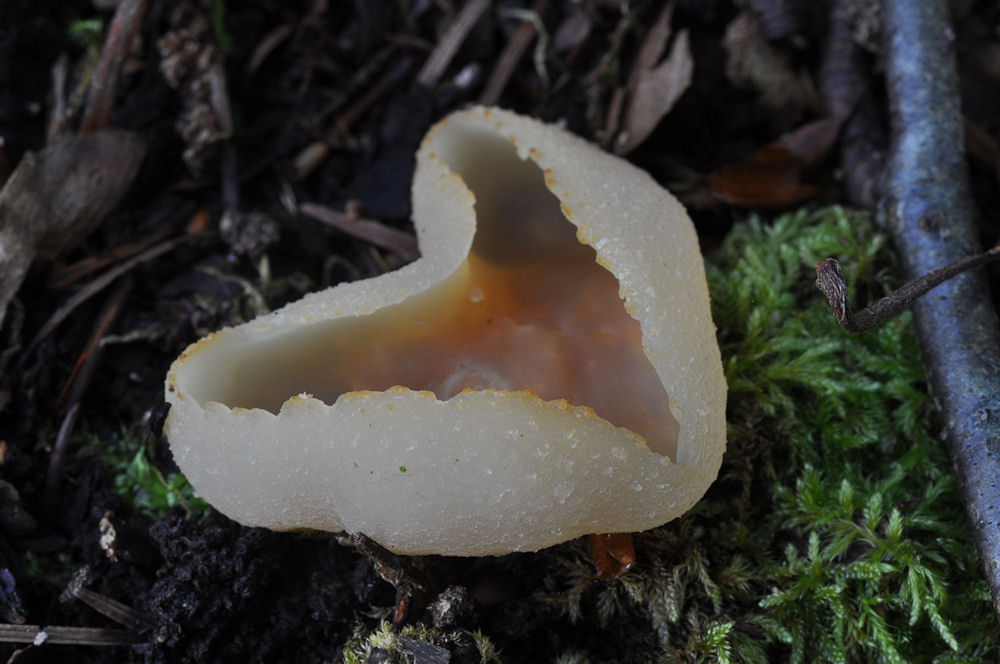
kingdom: Fungi
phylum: Ascomycota
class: Pezizomycetes
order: Pezizales
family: Pezizaceae
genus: Peziza
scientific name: Peziza repanda
